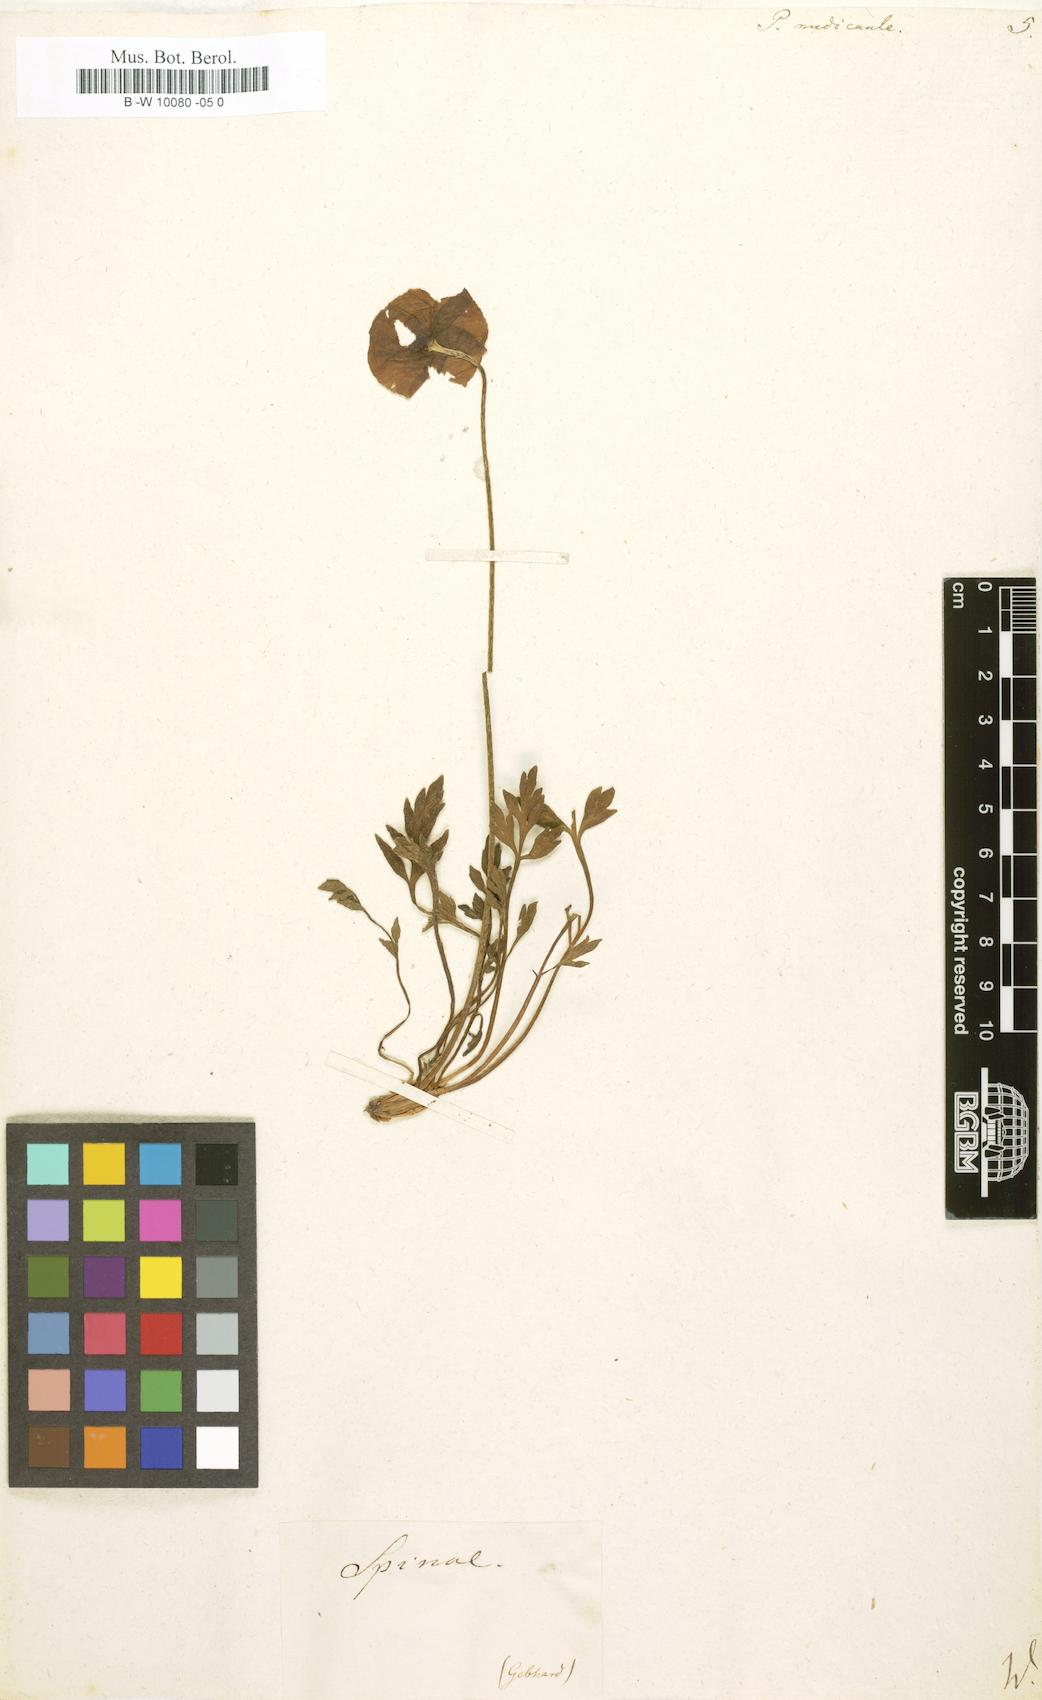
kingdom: Plantae
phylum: Tracheophyta
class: Magnoliopsida
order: Ranunculales
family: Papaveraceae
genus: Papaver
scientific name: Papaver nudicaule
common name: Arctic poppy
